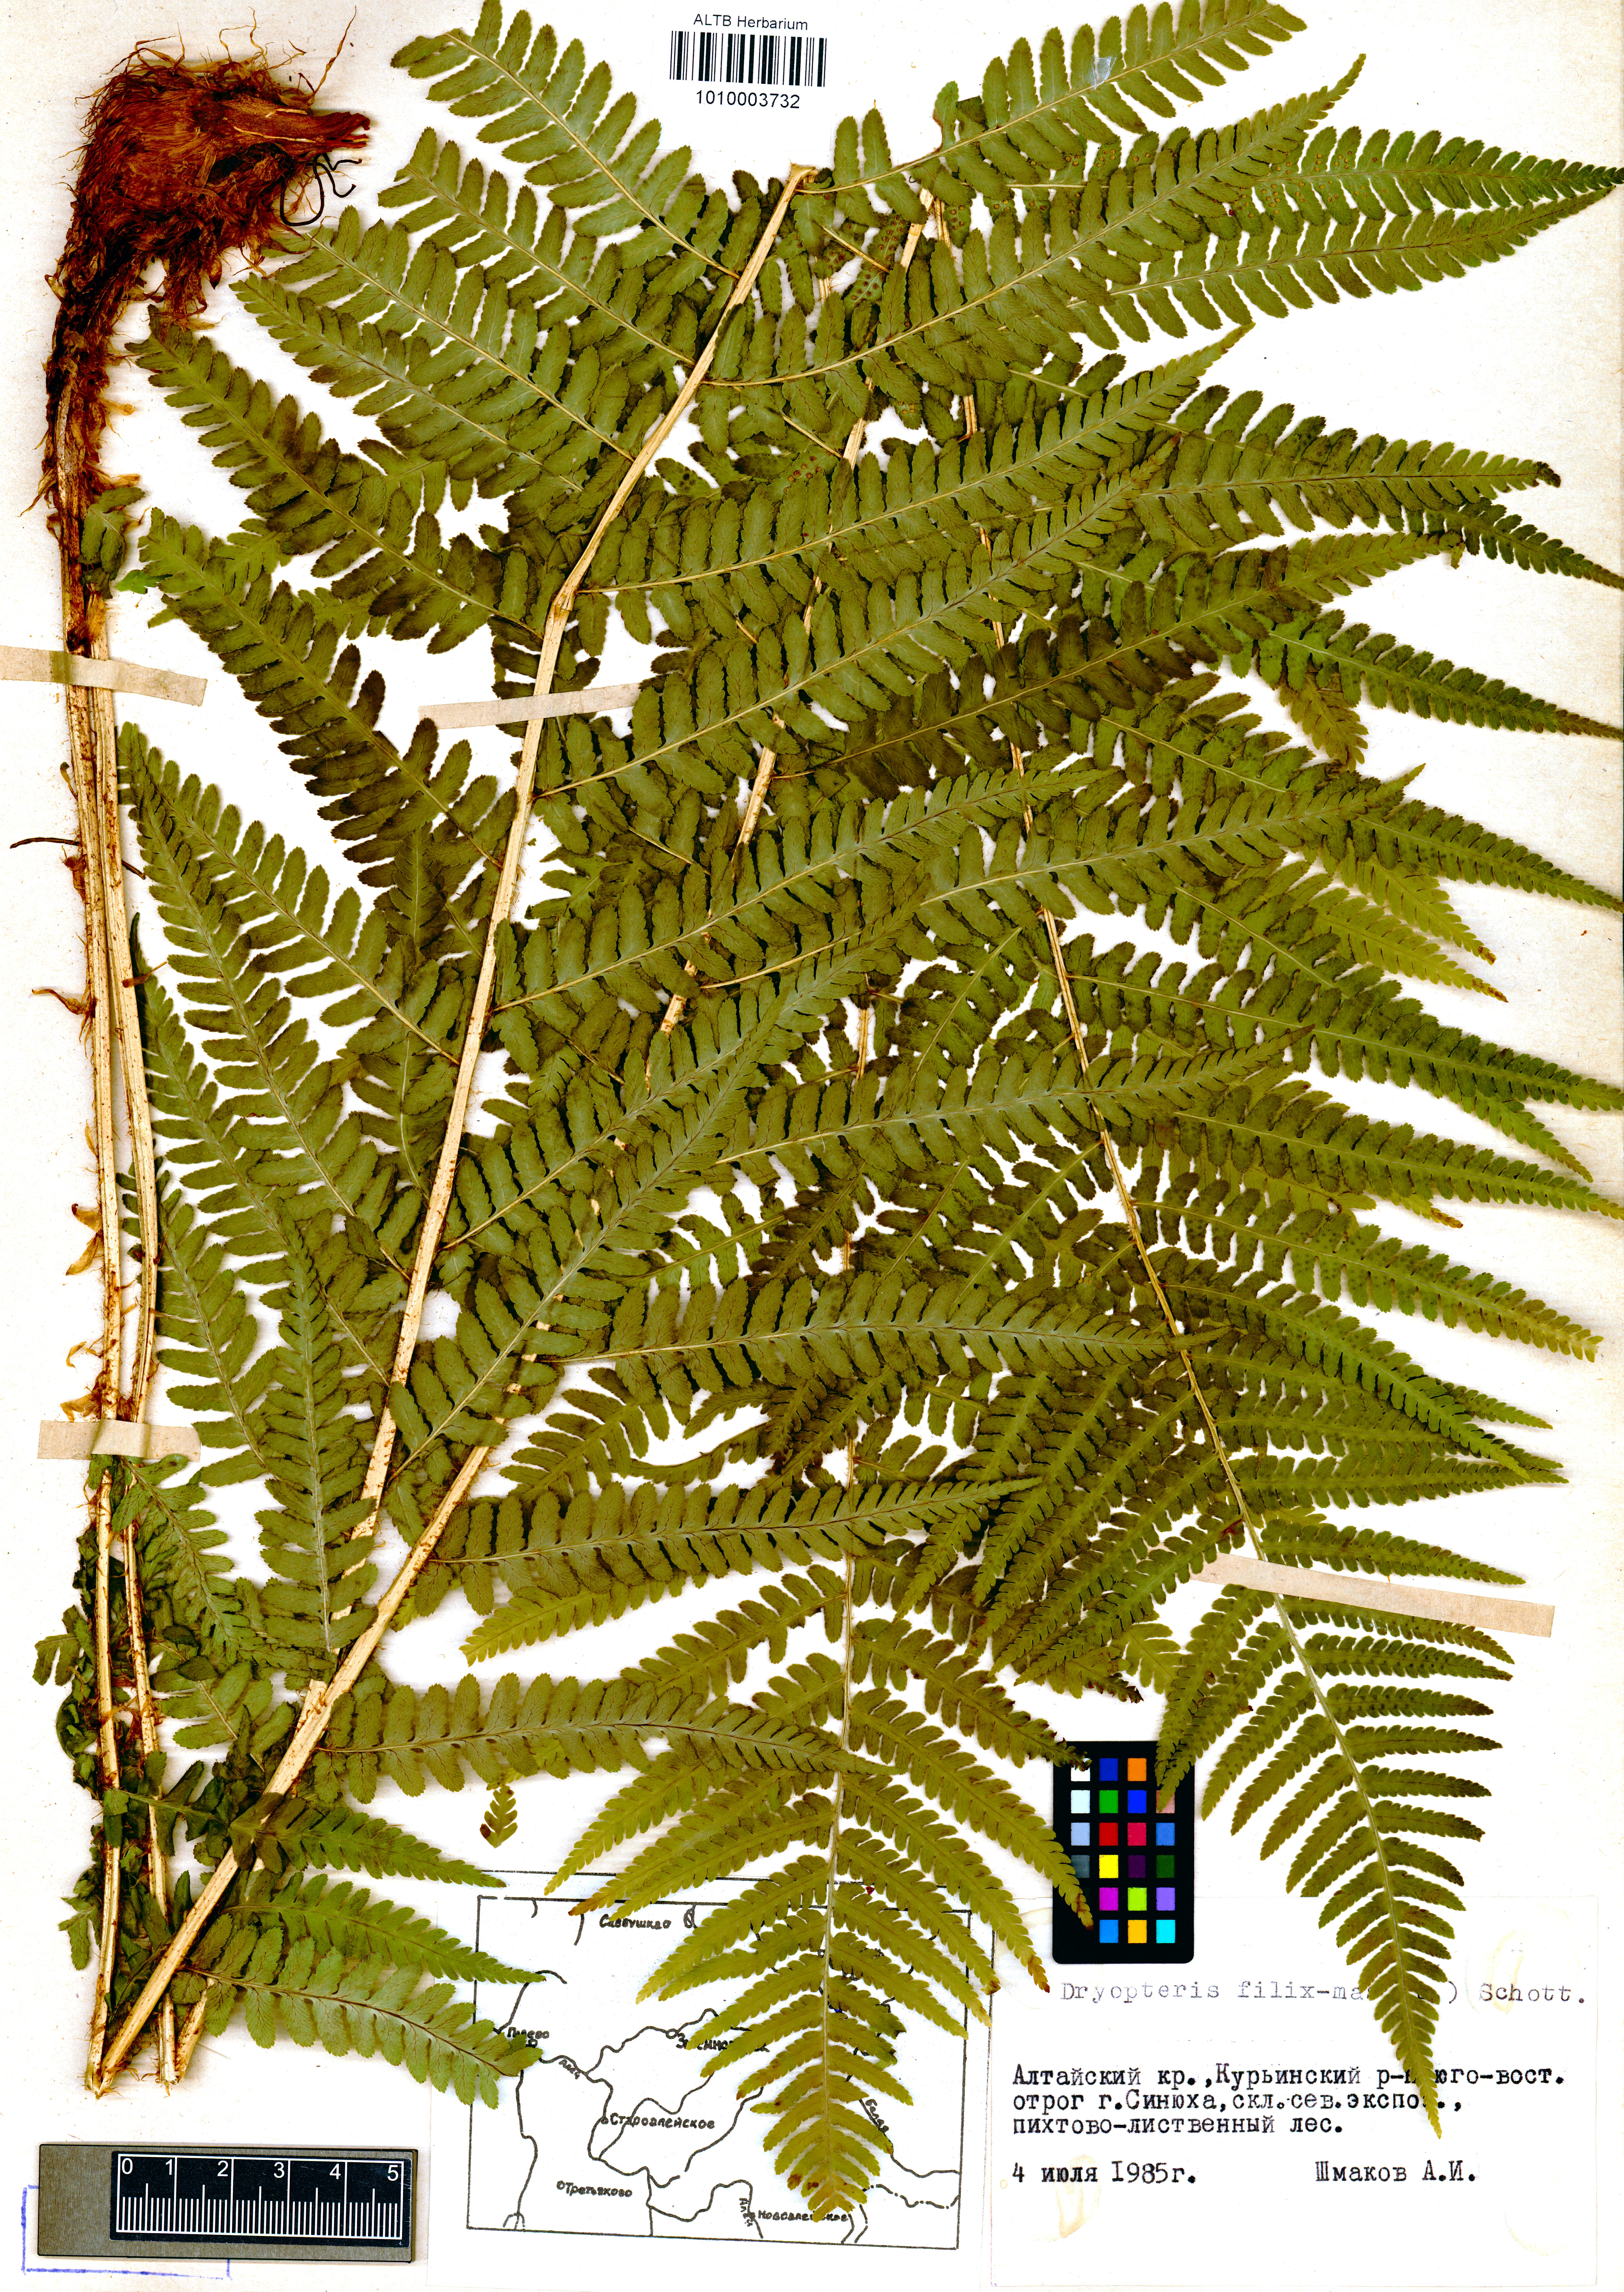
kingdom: Plantae
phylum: Tracheophyta
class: Polypodiopsida
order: Polypodiales
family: Dryopteridaceae
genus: Dryopteris
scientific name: Dryopteris filix-mas
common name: Male fern
